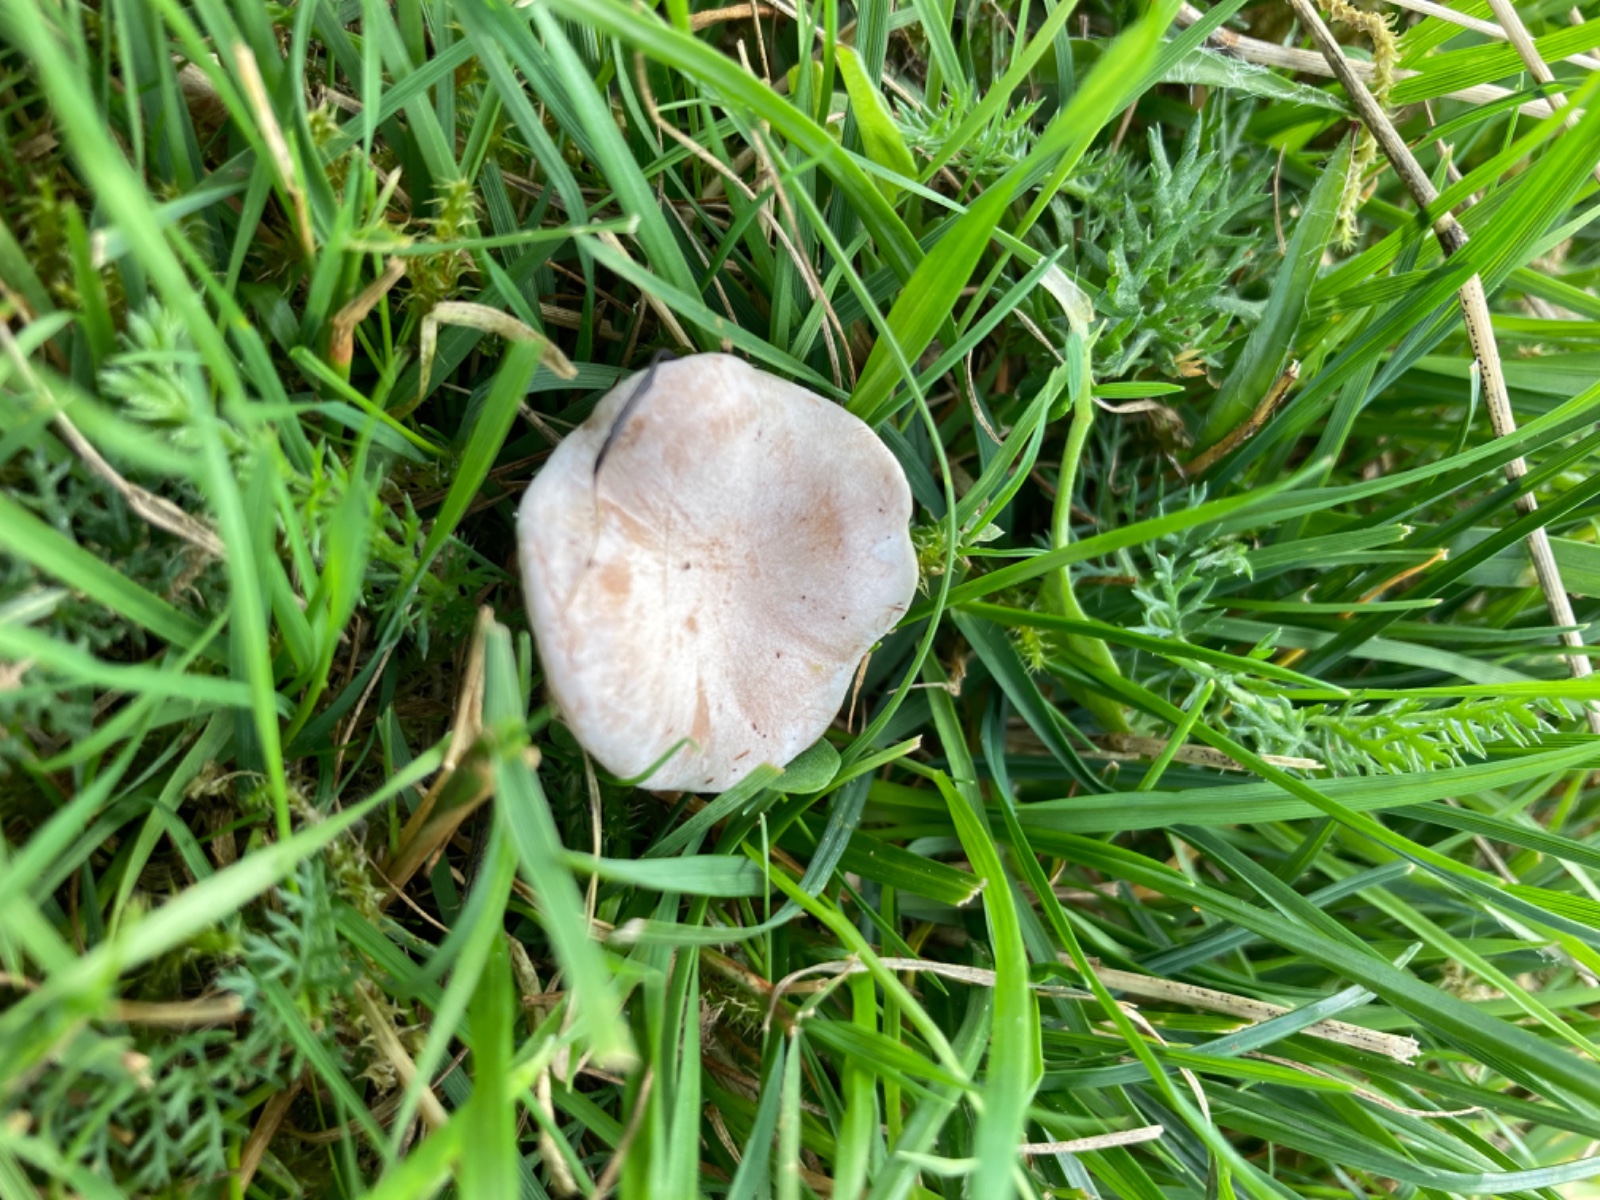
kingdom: Fungi
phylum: Basidiomycota
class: Agaricomycetes
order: Agaricales
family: Tricholomataceae
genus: Clitocybe
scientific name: Clitocybe rivulosa
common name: eng-tragthat
